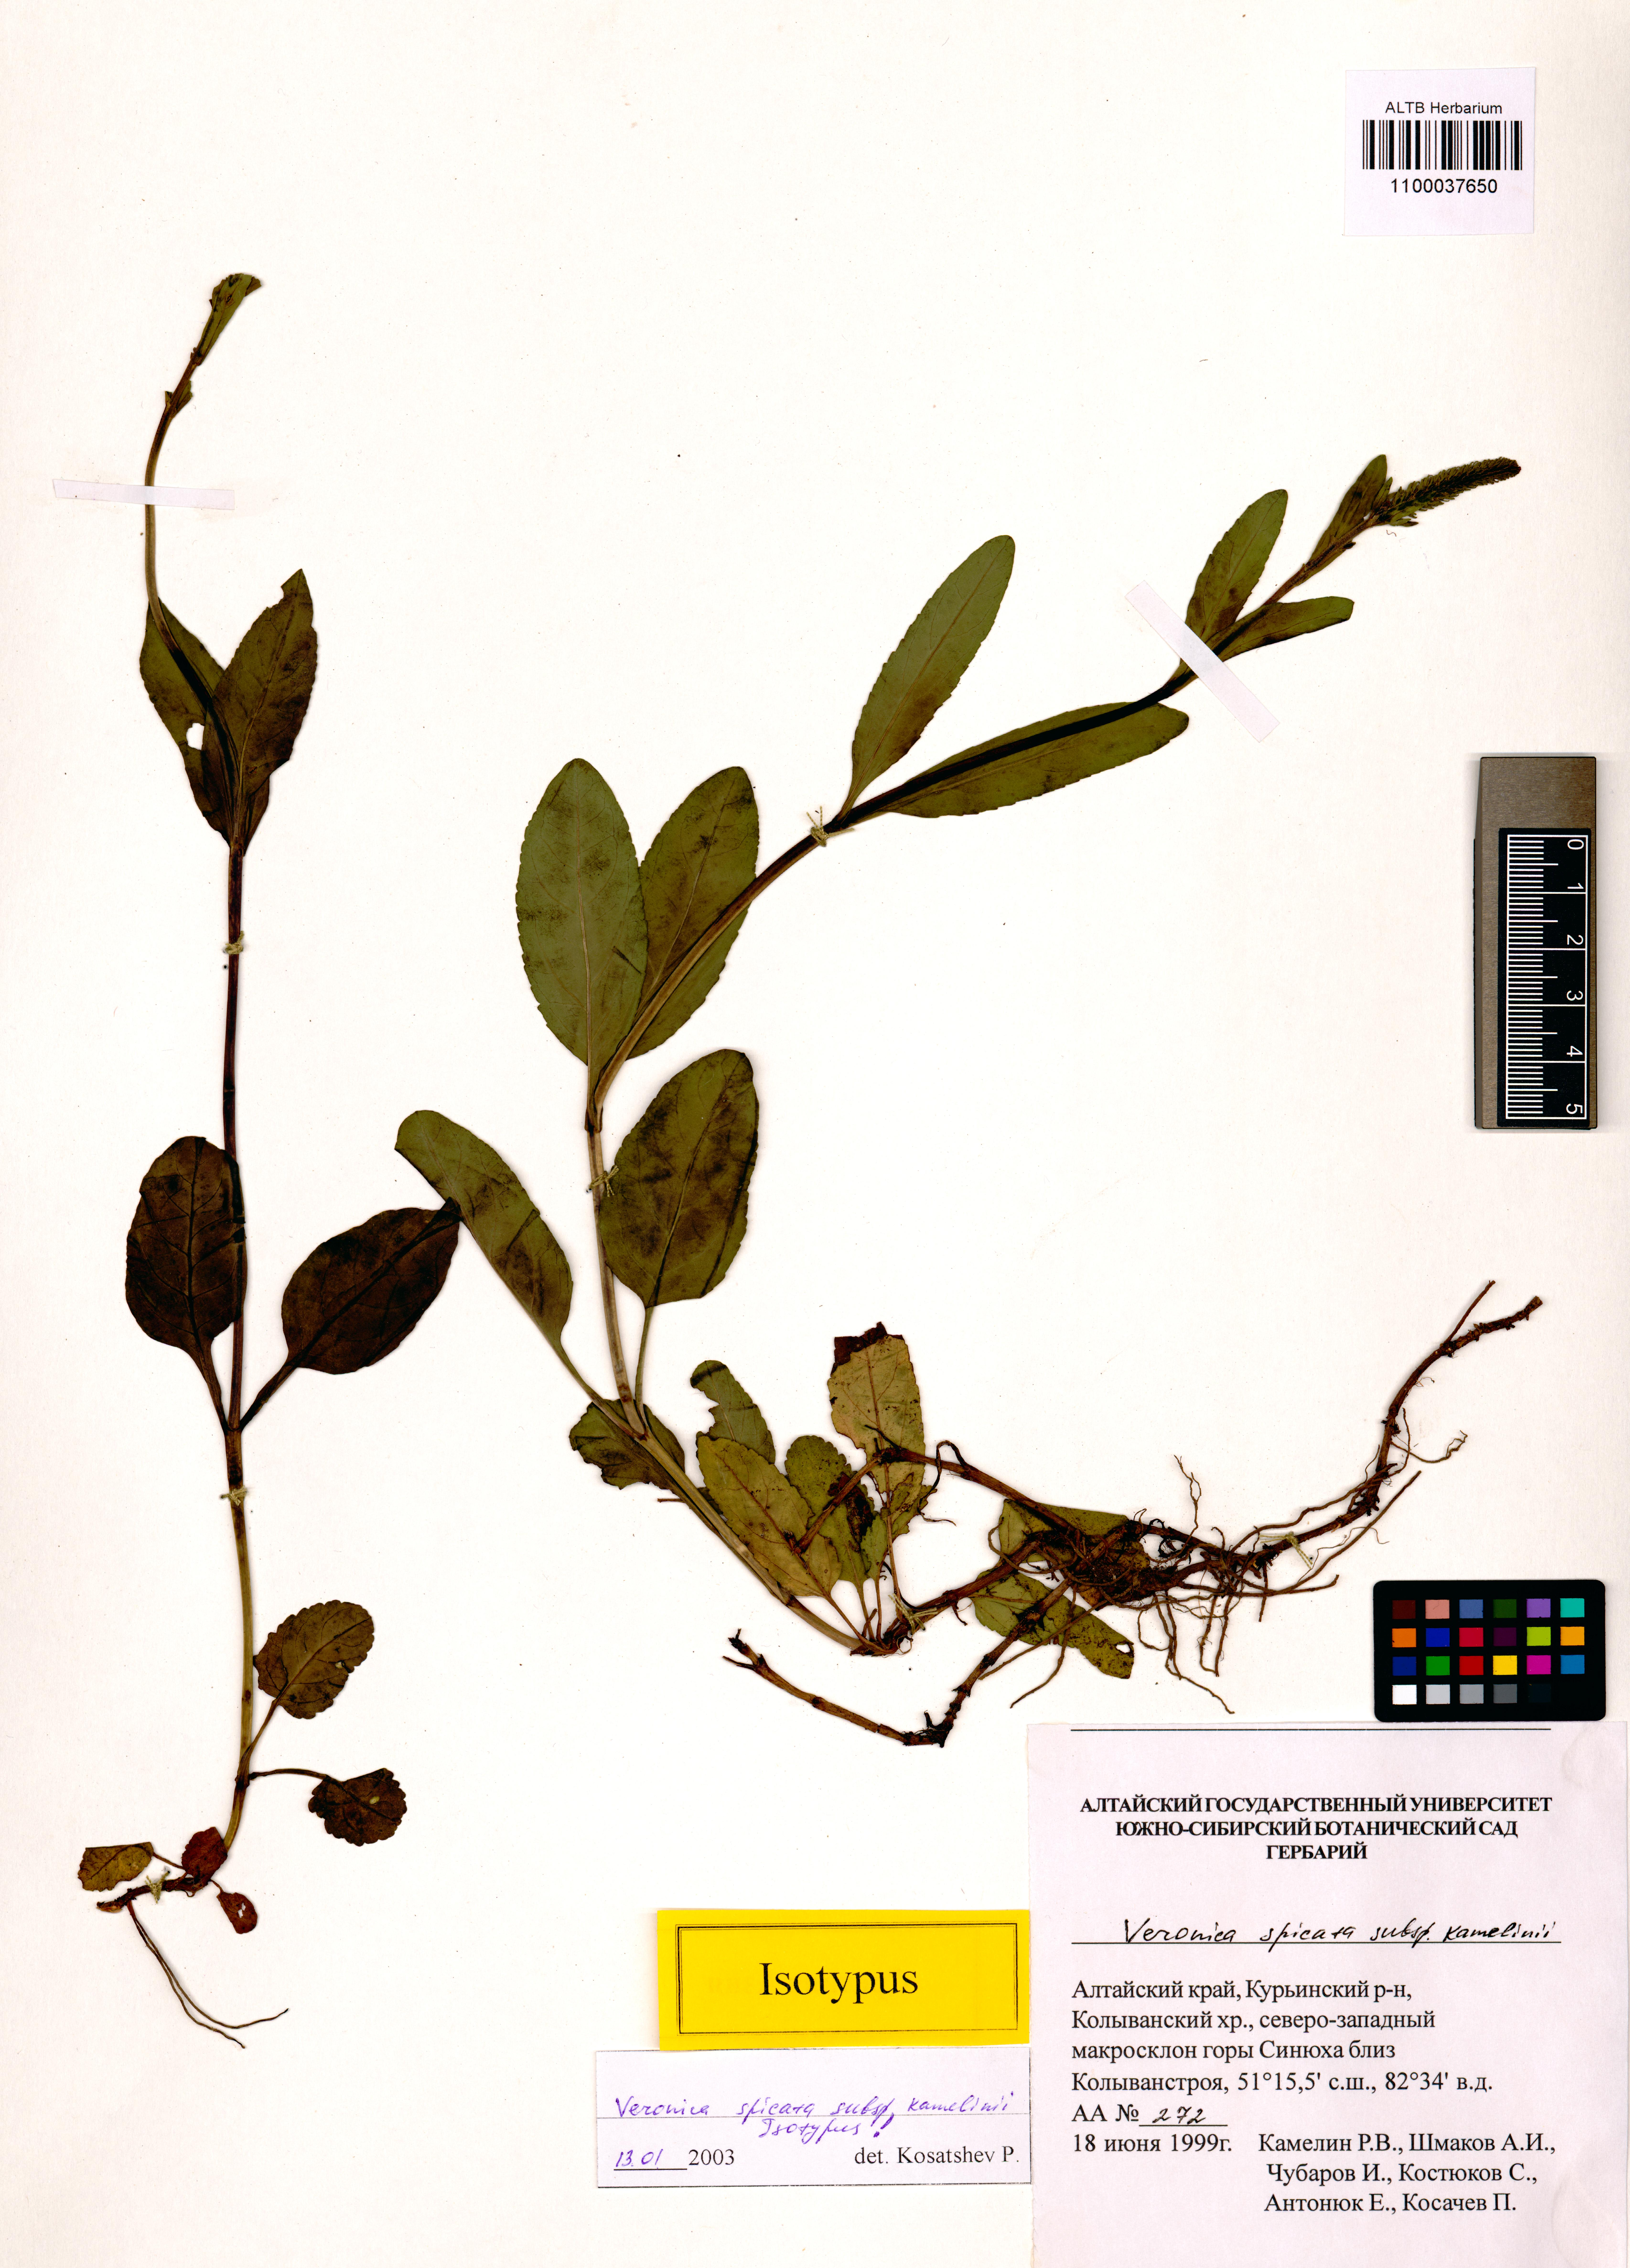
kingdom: Plantae
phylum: Tracheophyta
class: Magnoliopsida
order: Lamiales
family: Plantaginaceae
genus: Veronica
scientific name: Veronica spicata
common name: Spiked speedwell
